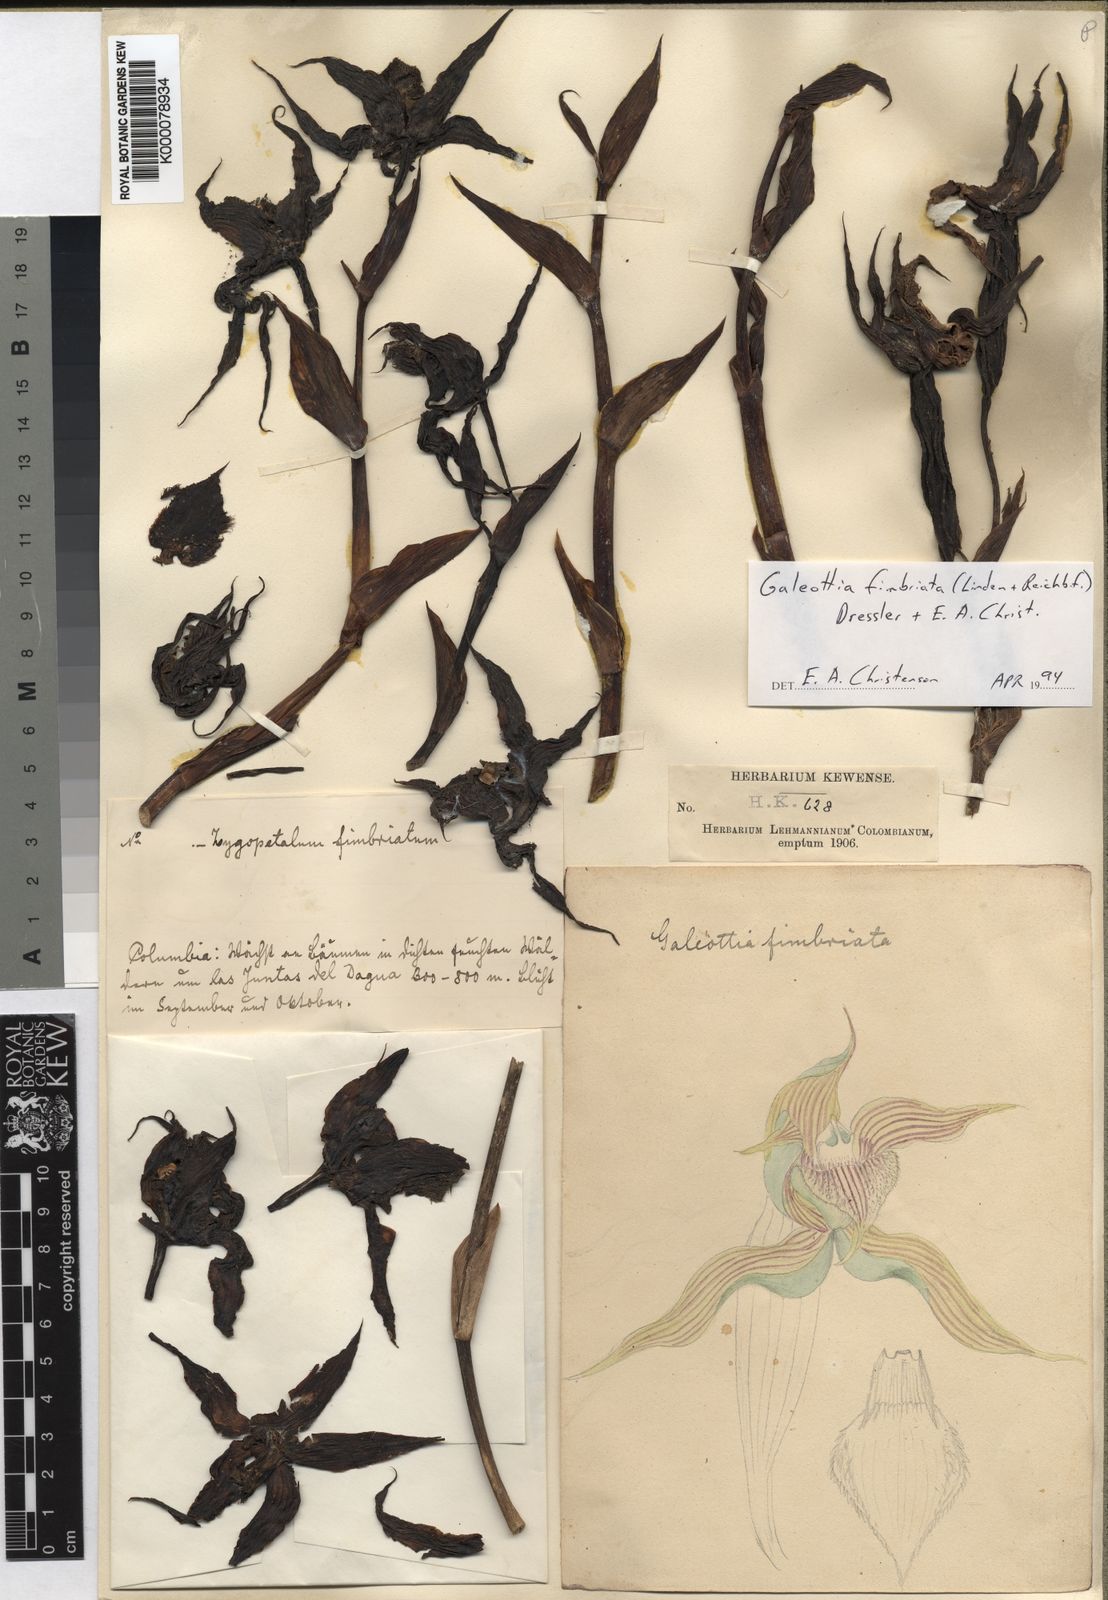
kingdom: Plantae
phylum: Tracheophyta
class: Liliopsida
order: Asparagales
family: Orchidaceae
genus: Galeottia
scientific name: Galeottia fimbriata
